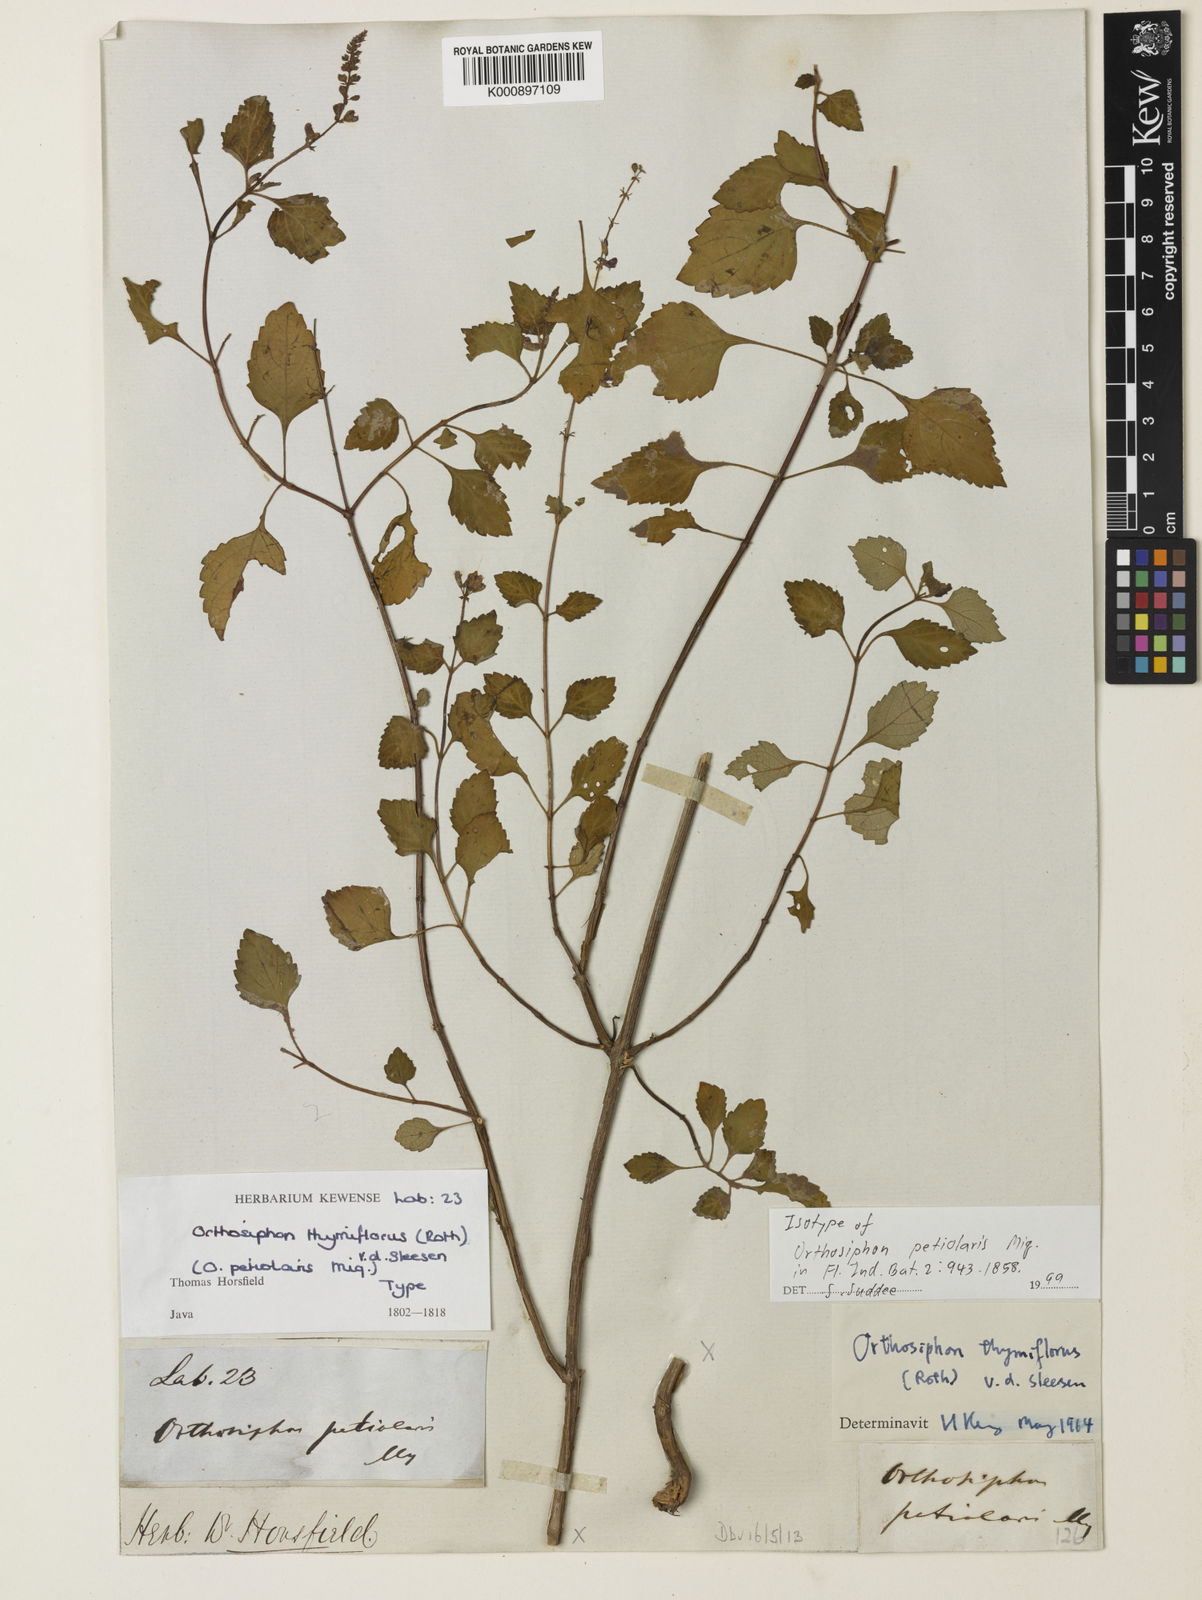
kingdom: Plantae
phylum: Tracheophyta
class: Magnoliopsida
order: Lamiales
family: Lamiaceae
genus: Orthosiphon
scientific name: Orthosiphon thymiflorus
